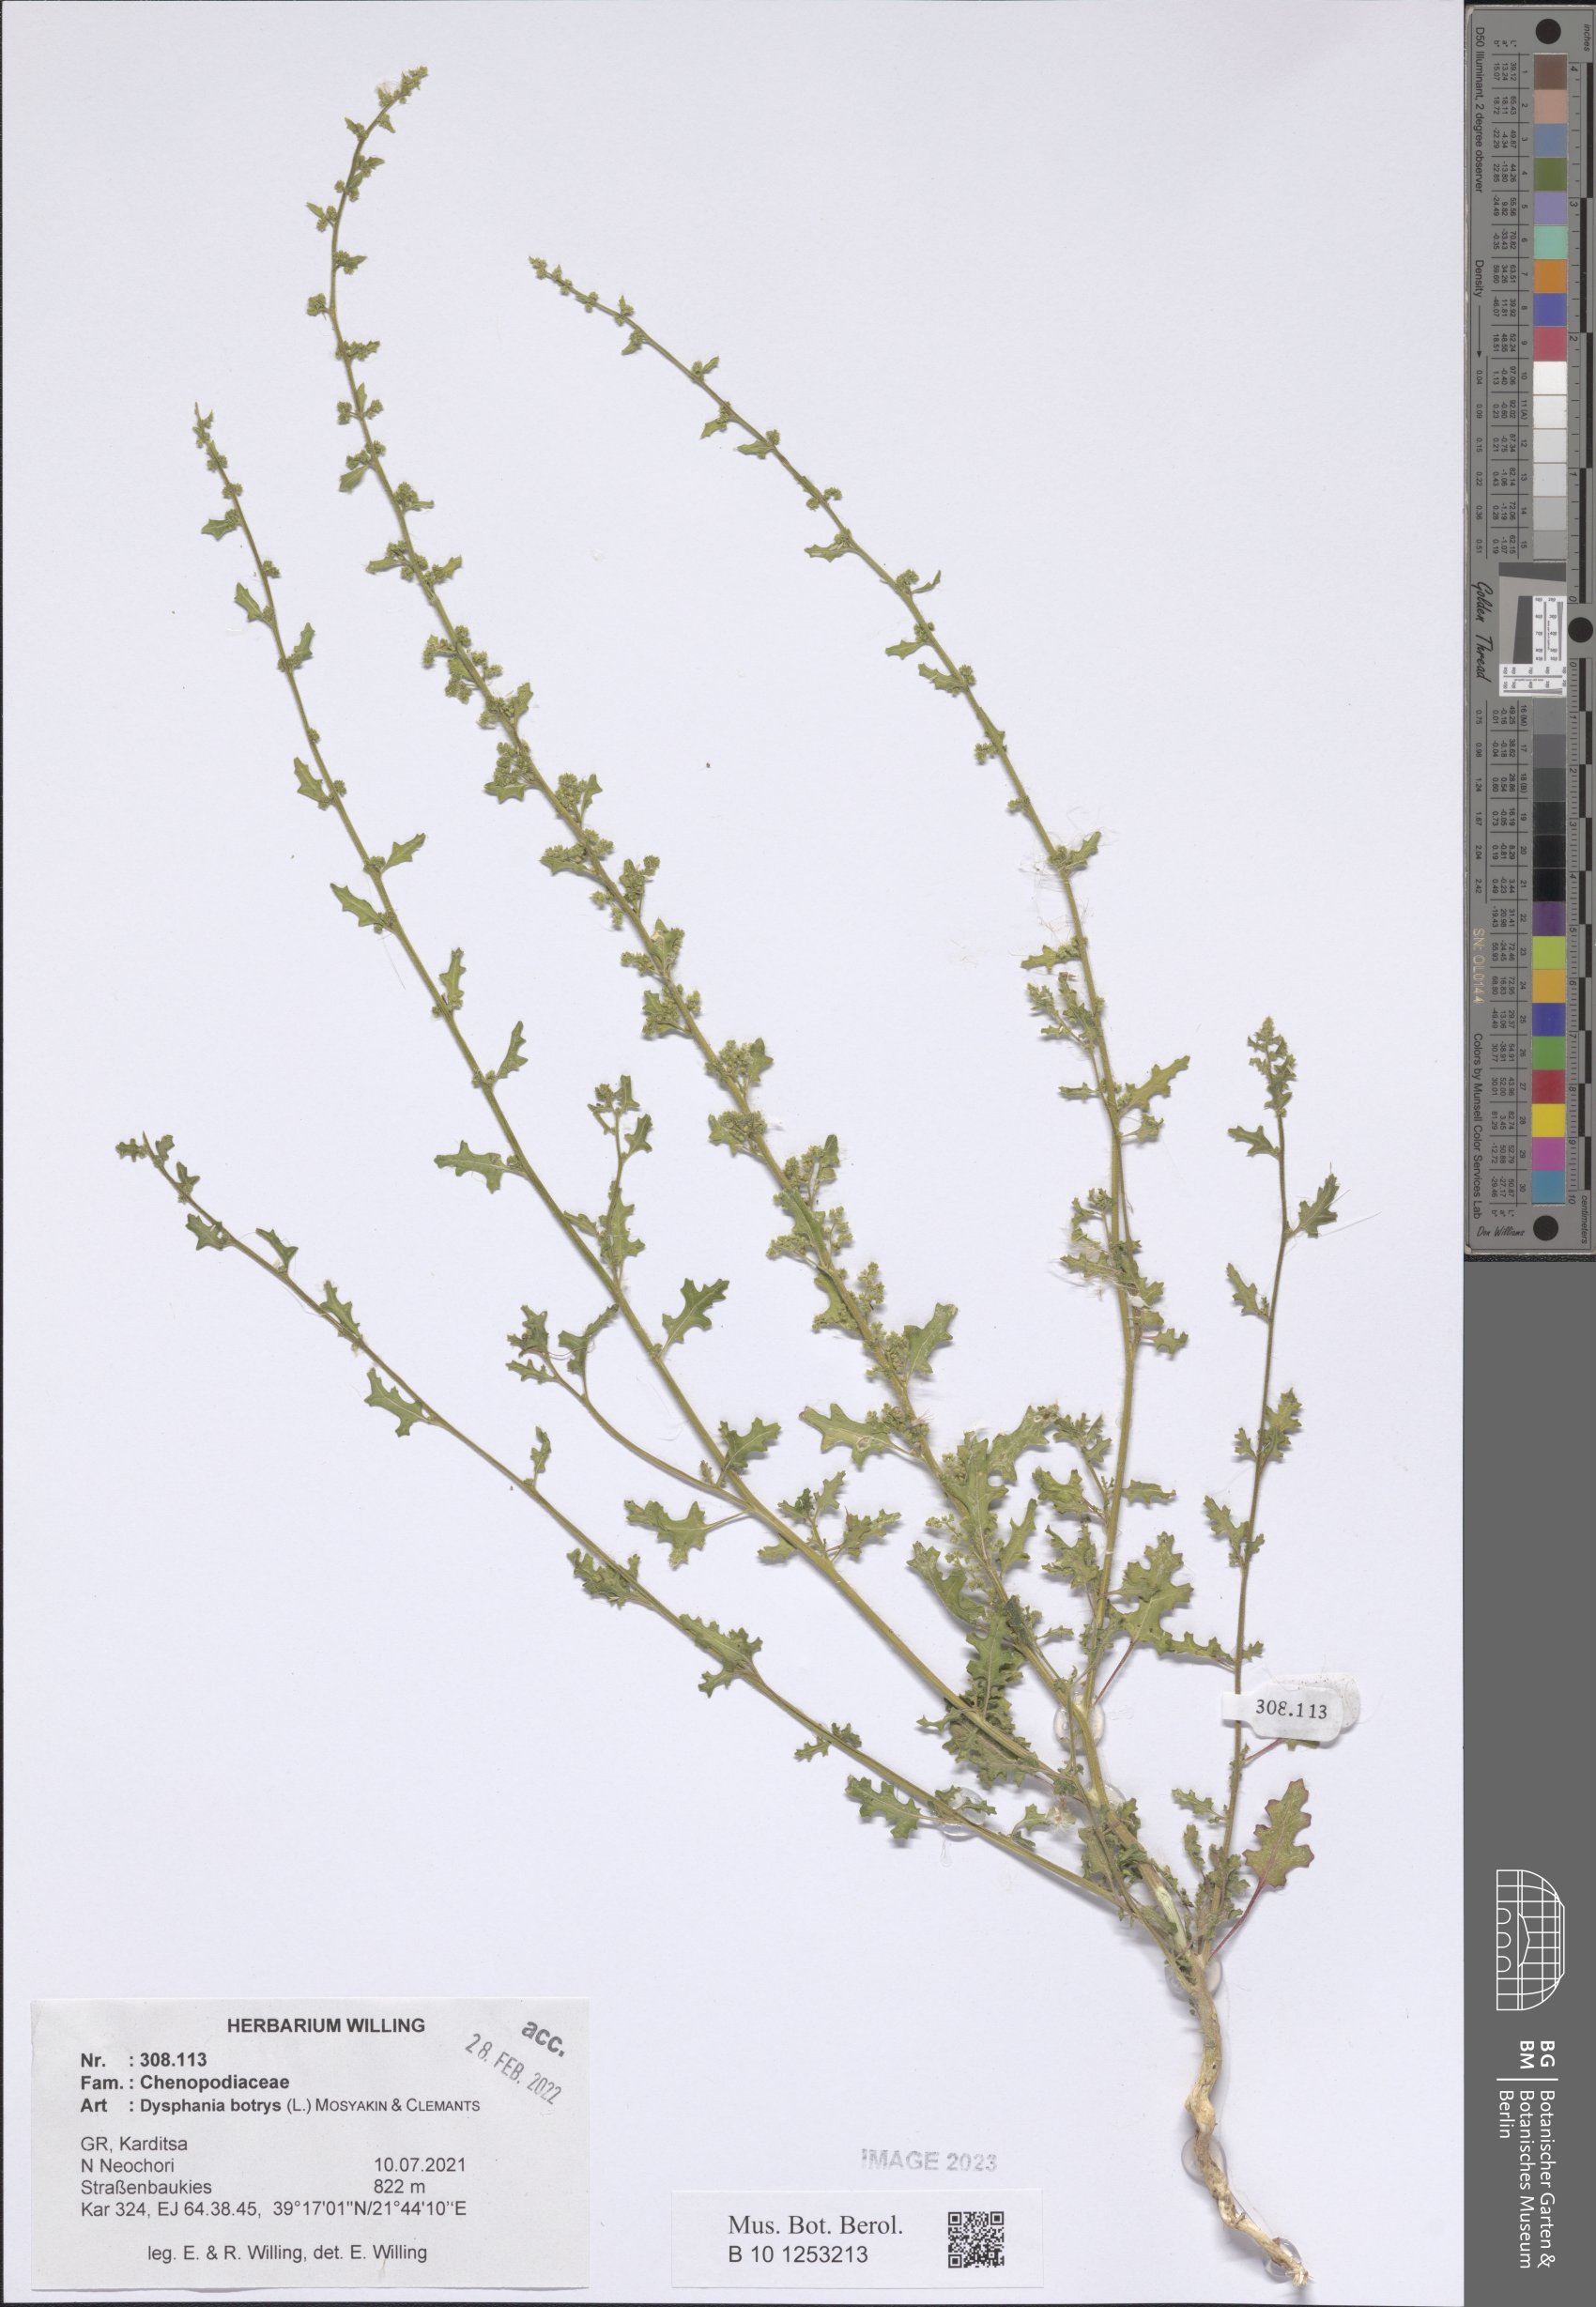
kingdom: Plantae
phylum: Tracheophyta
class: Magnoliopsida
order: Caryophyllales
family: Amaranthaceae
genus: Dysphania
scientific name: Dysphania botrys
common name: Feather-geranium
